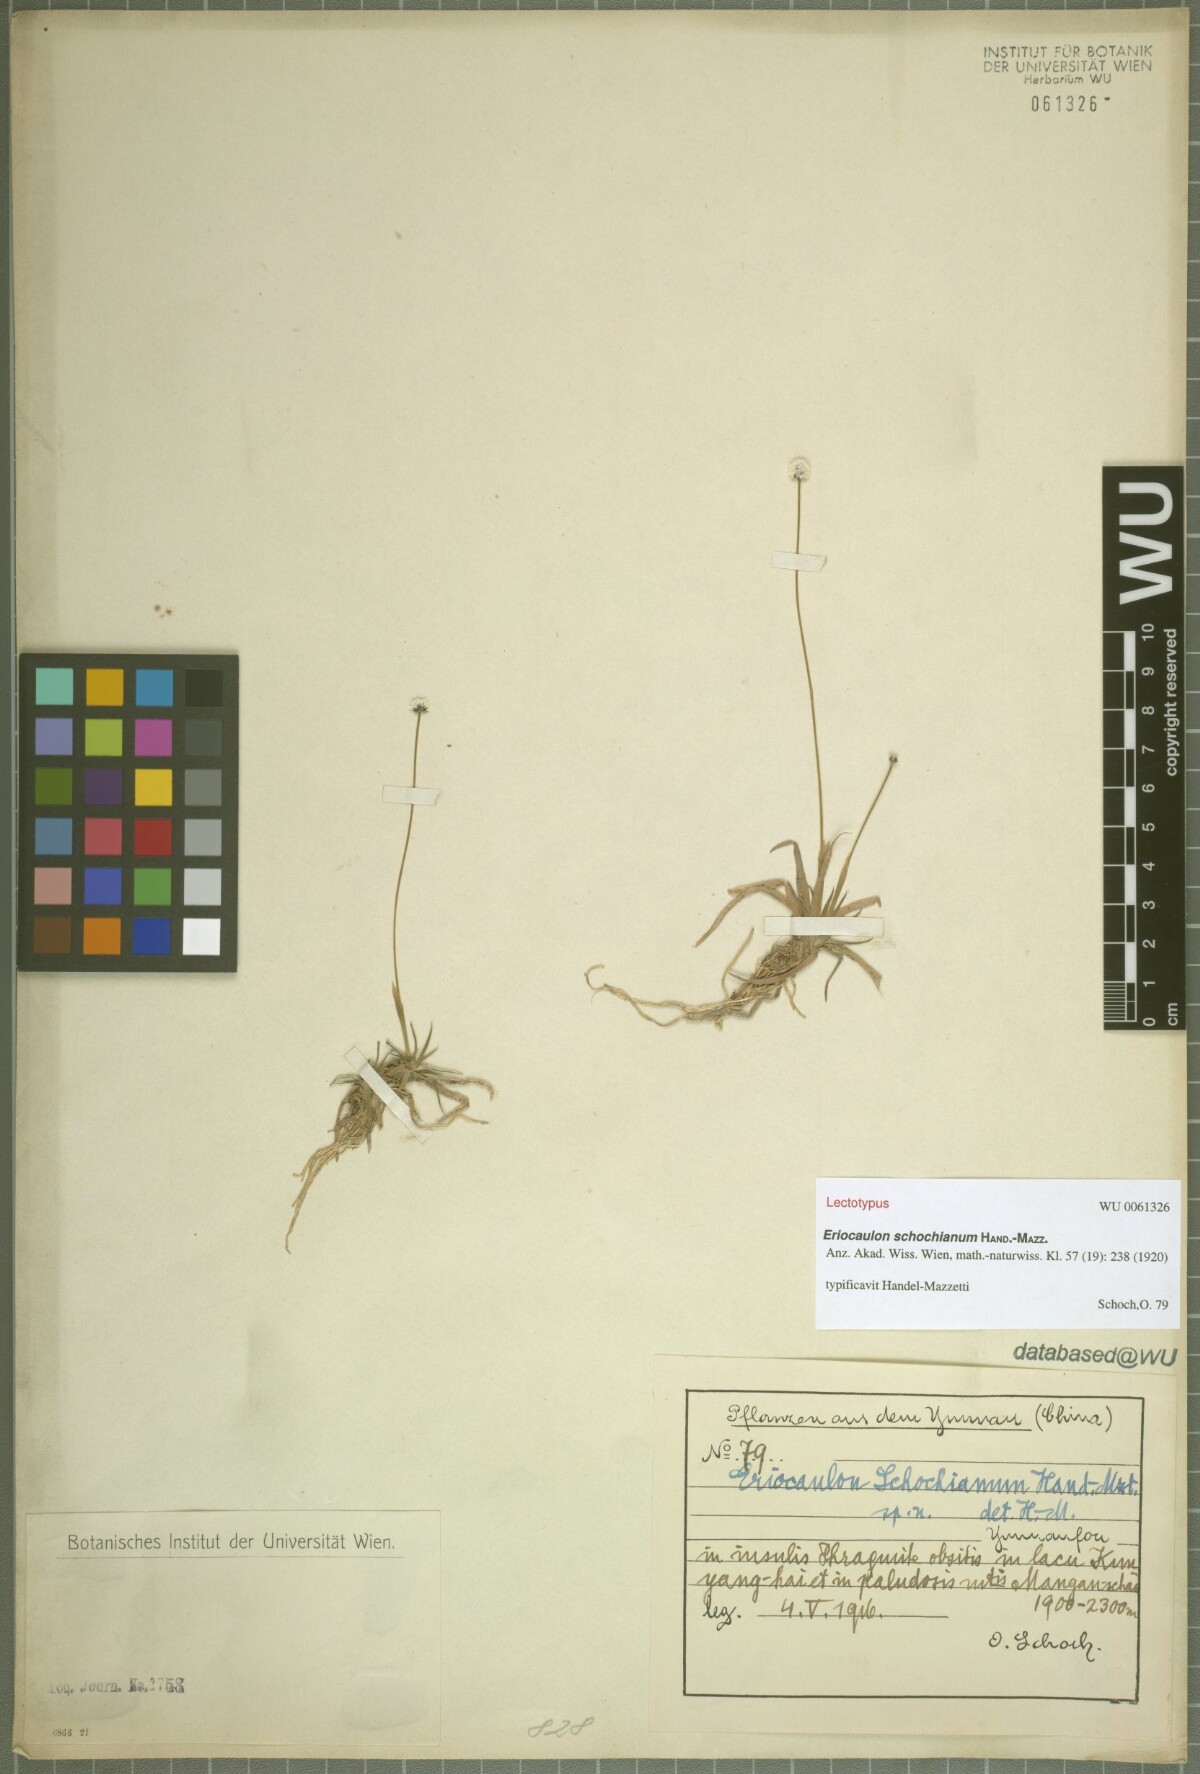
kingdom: Plantae
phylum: Tracheophyta
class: Liliopsida
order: Poales
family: Eriocaulaceae
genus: Eriocaulon
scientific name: Eriocaulon schochianum
